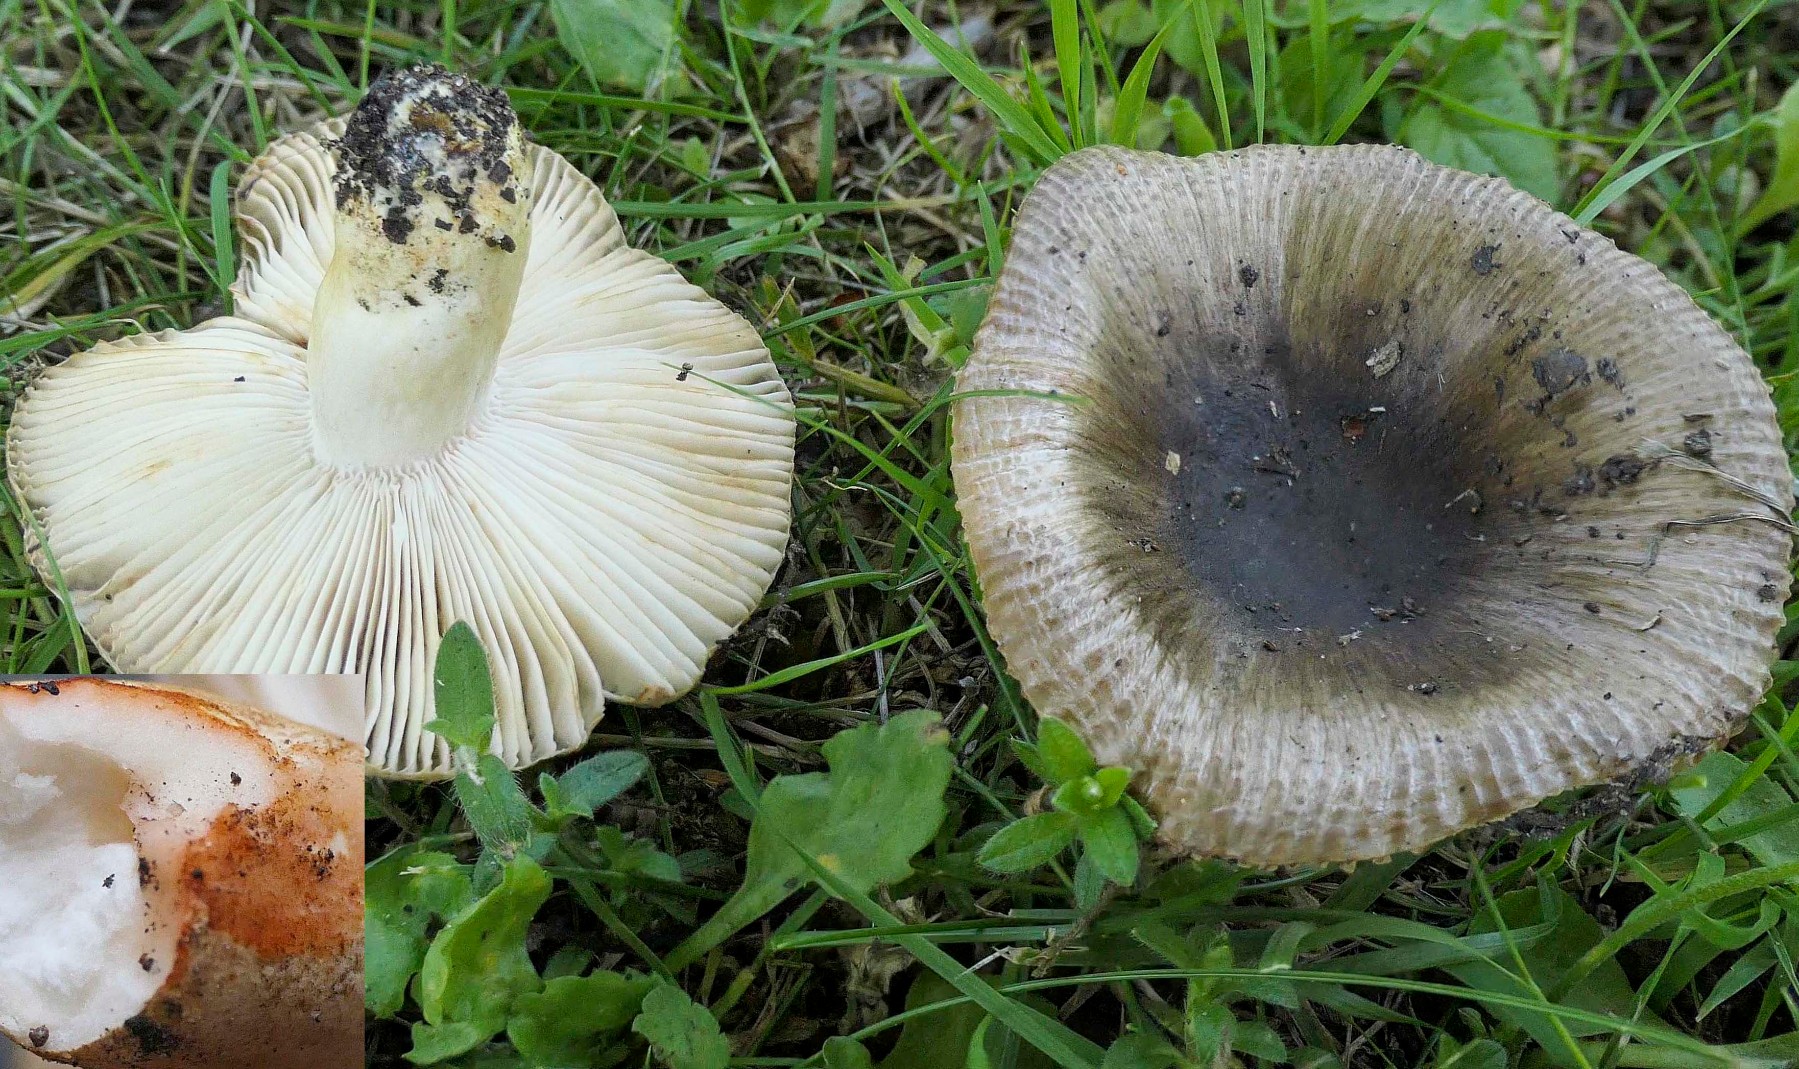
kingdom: Fungi
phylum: Basidiomycota
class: Agaricomycetes
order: Russulales
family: Russulaceae
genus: Russula
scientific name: Russula insignis
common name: gulfodet kam-skørhat
